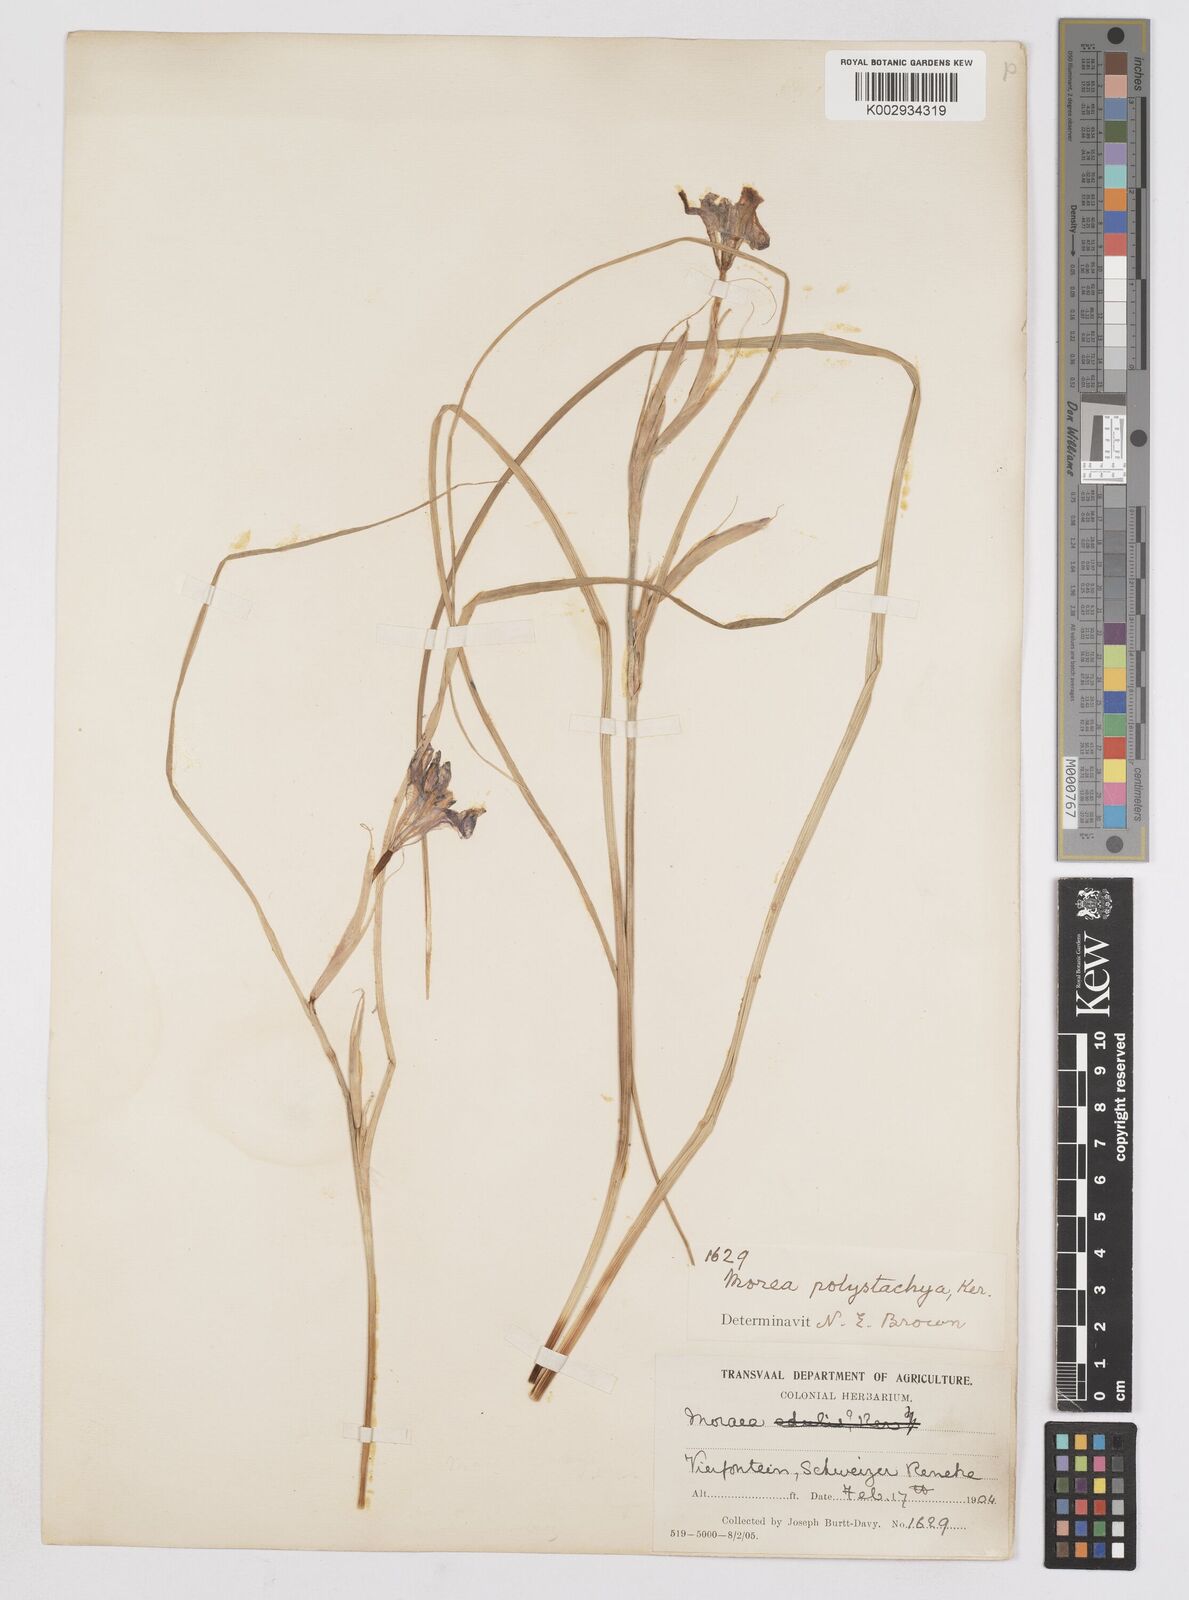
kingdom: Plantae
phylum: Tracheophyta
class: Liliopsida
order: Asparagales
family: Iridaceae
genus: Moraea
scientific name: Moraea polystachya
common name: Blue-tulip
